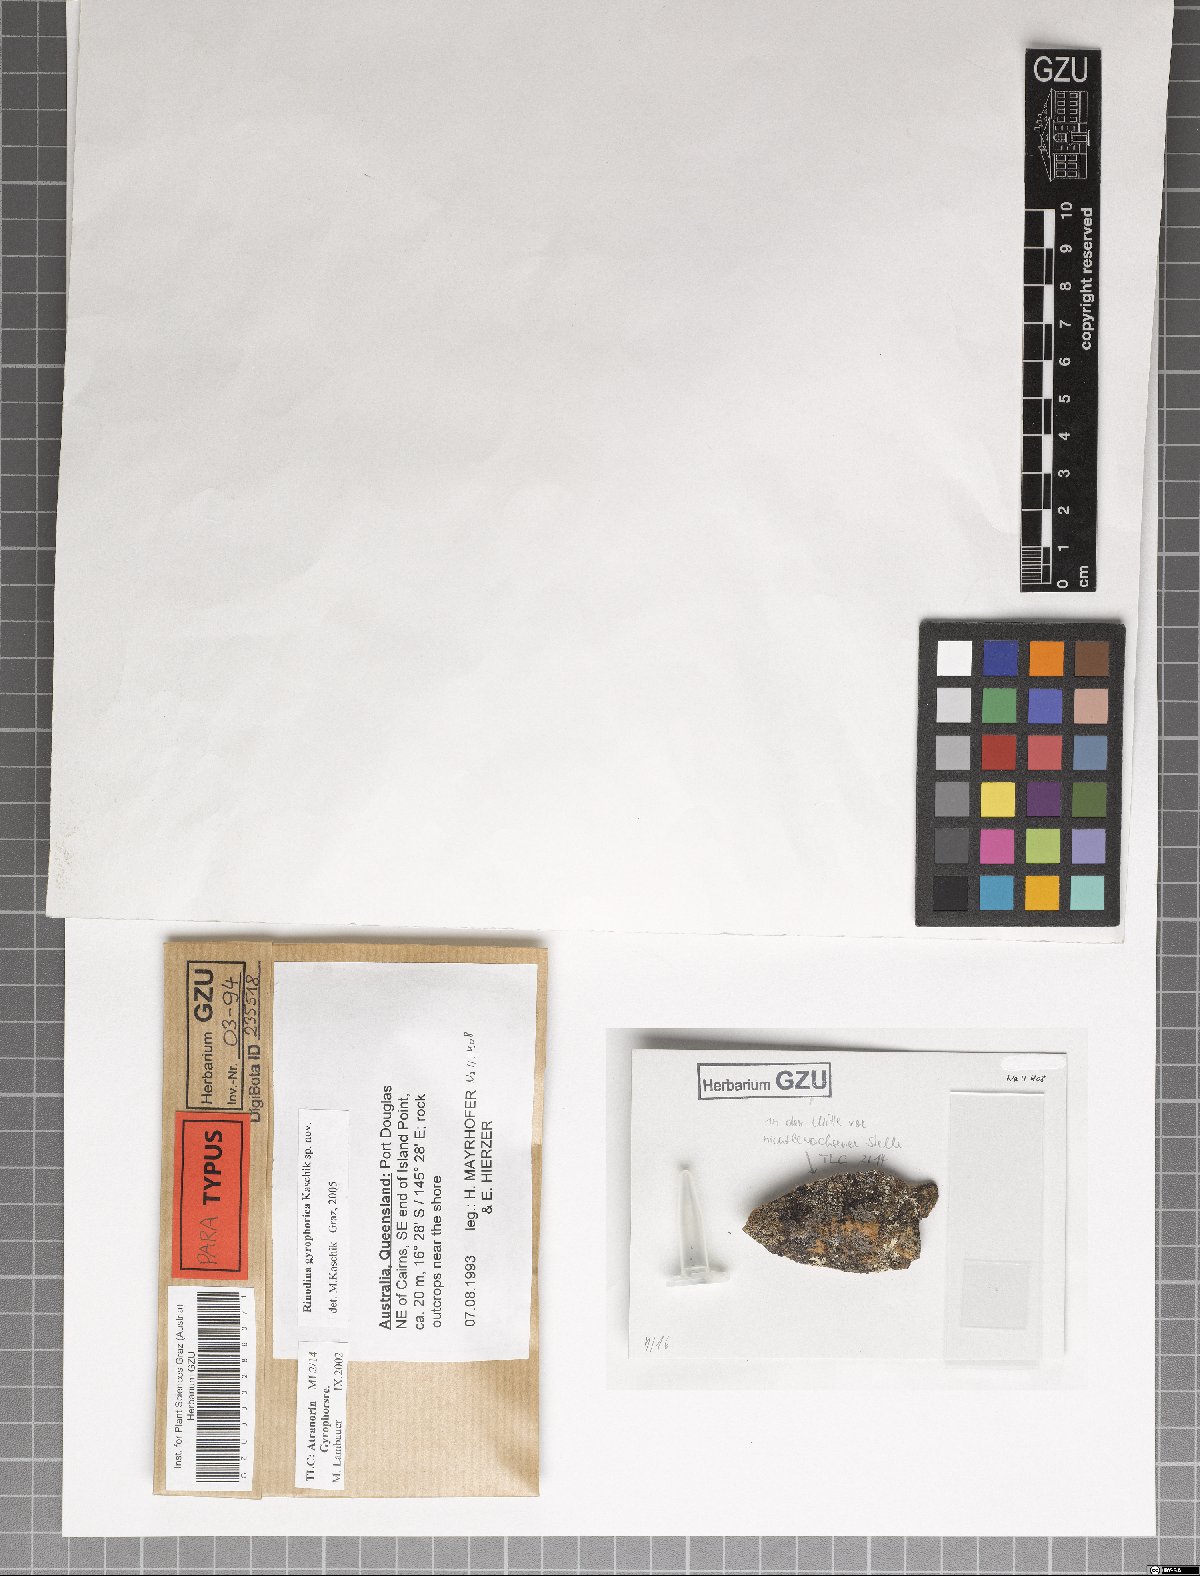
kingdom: Fungi
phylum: Ascomycota
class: Lecanoromycetes
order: Caliciales
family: Physciaceae
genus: Rinodina
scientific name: Rinodina gyrophorica
